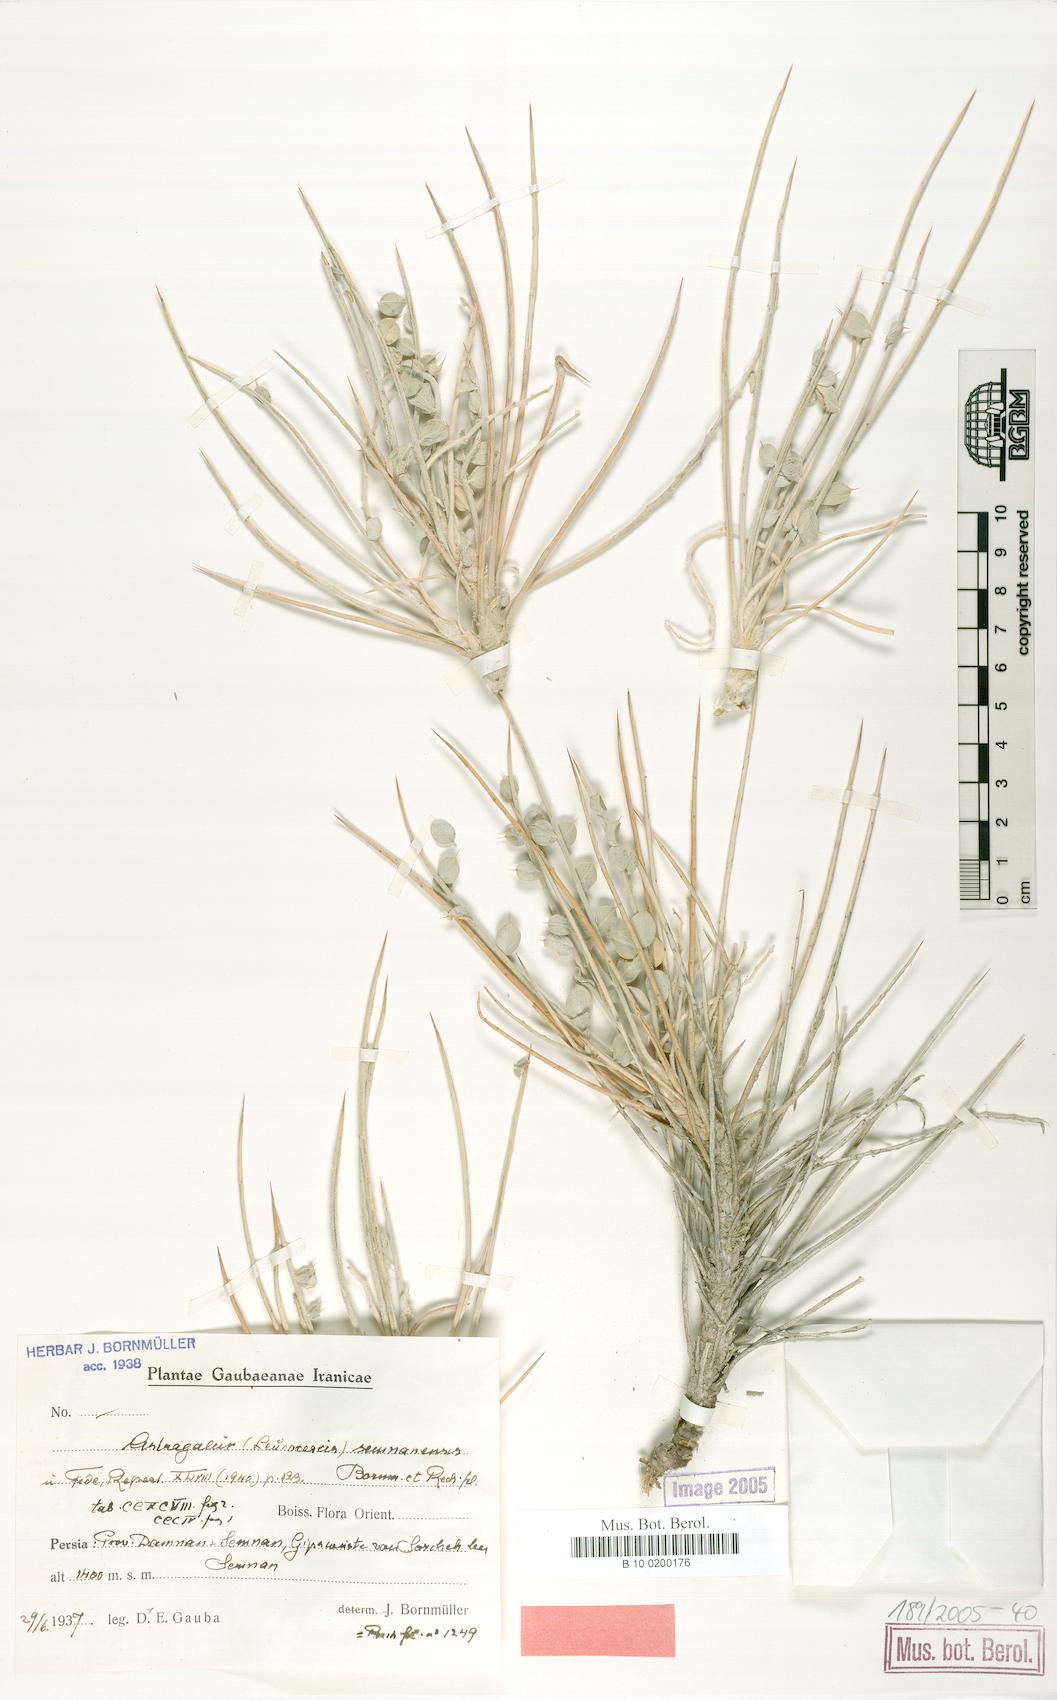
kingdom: Plantae
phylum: Tracheophyta
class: Magnoliopsida
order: Fabales
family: Fabaceae
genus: Astragalus
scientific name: Astragalus semnanensis
